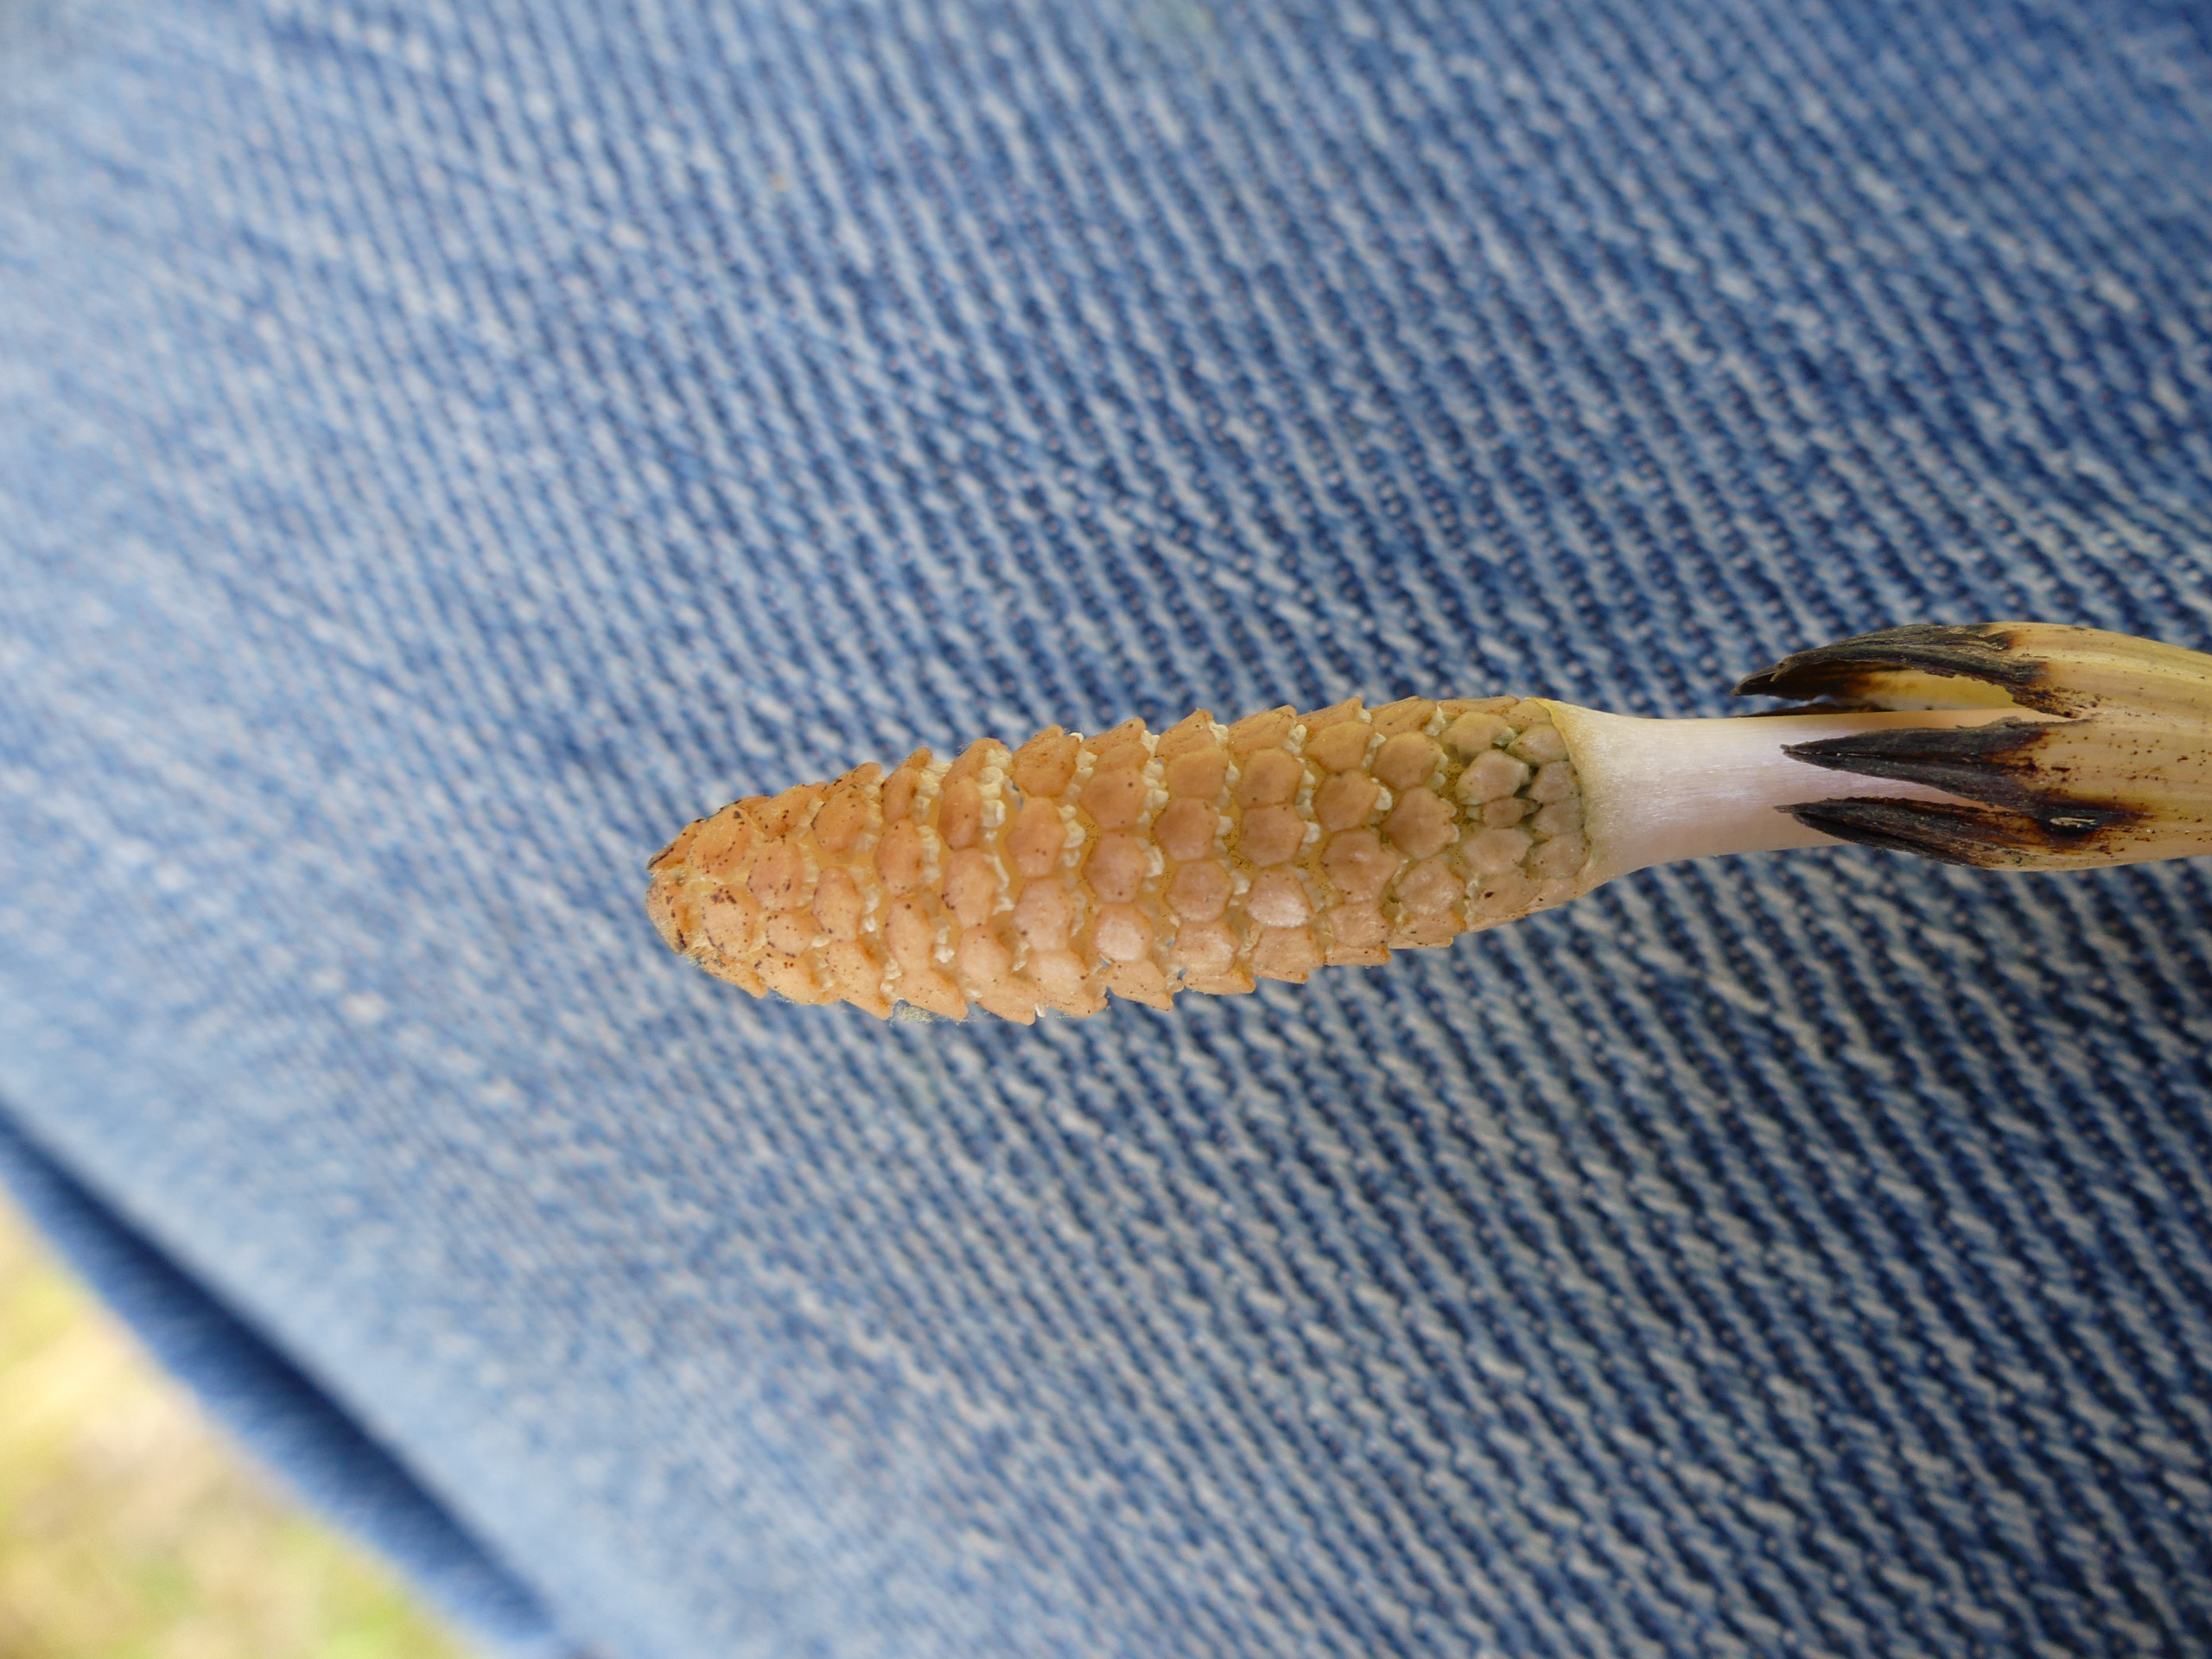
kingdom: Plantae
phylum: Tracheophyta
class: Polypodiopsida
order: Equisetales
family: Equisetaceae
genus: Equisetum
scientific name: Equisetum arvense
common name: Ager-padderok
